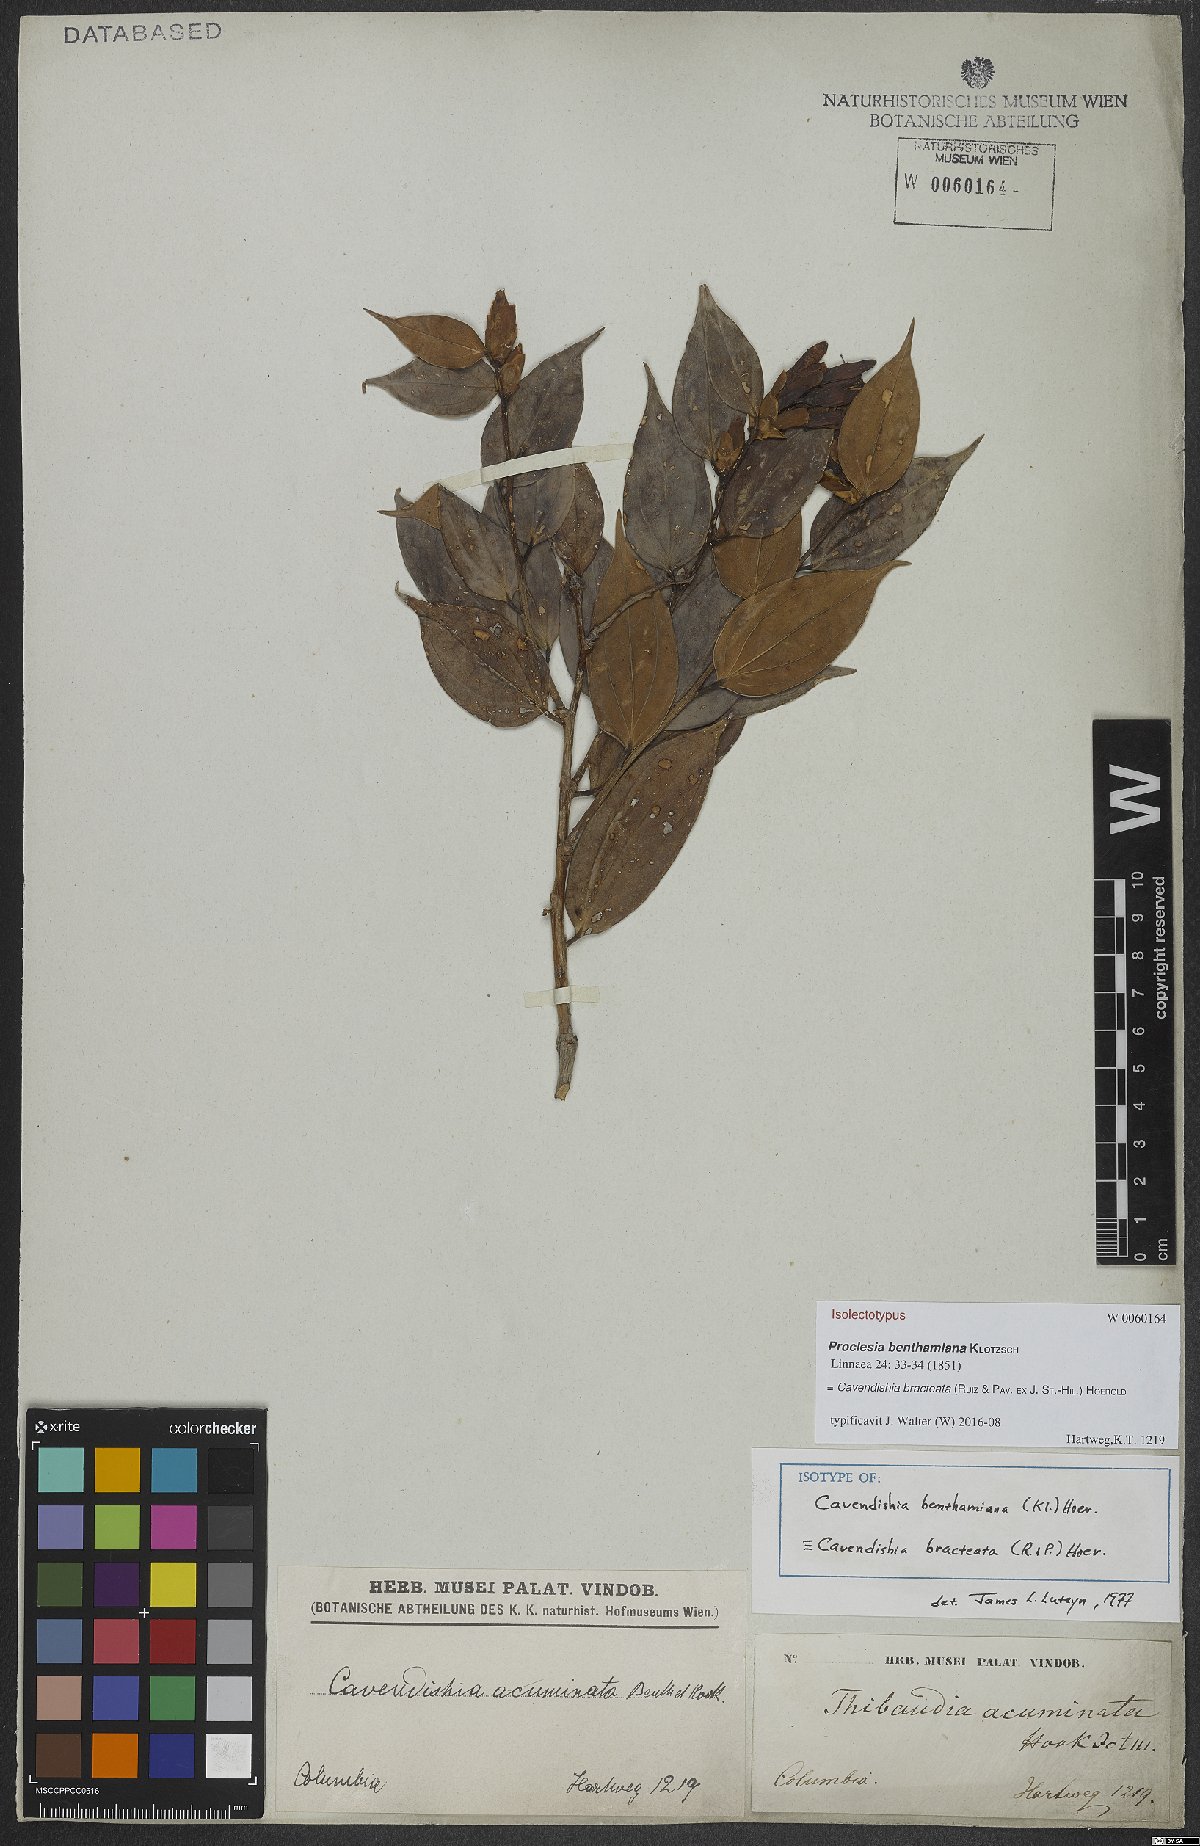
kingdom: Plantae
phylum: Tracheophyta
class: Magnoliopsida
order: Ericales
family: Ericaceae
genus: Cavendishia
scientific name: Cavendishia bracteata
